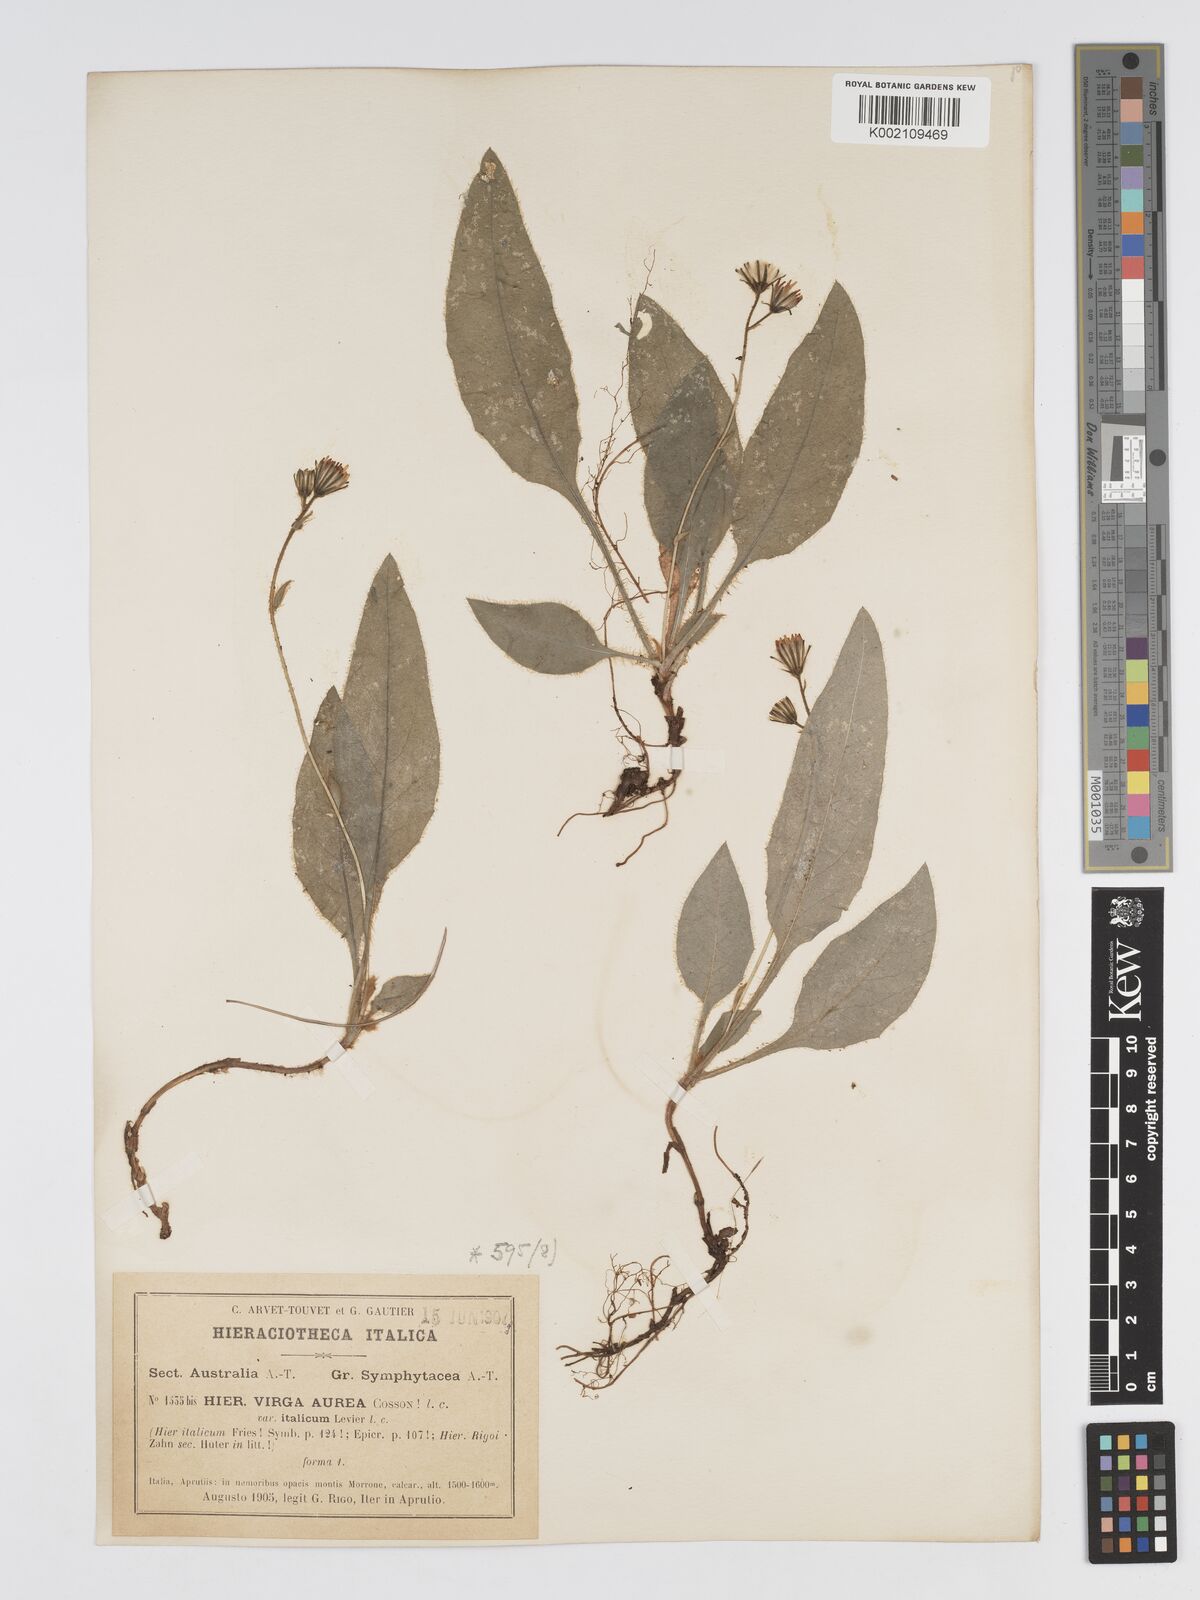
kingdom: Plantae
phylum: Tracheophyta
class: Magnoliopsida
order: Asterales
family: Asteraceae
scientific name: Asteraceae
